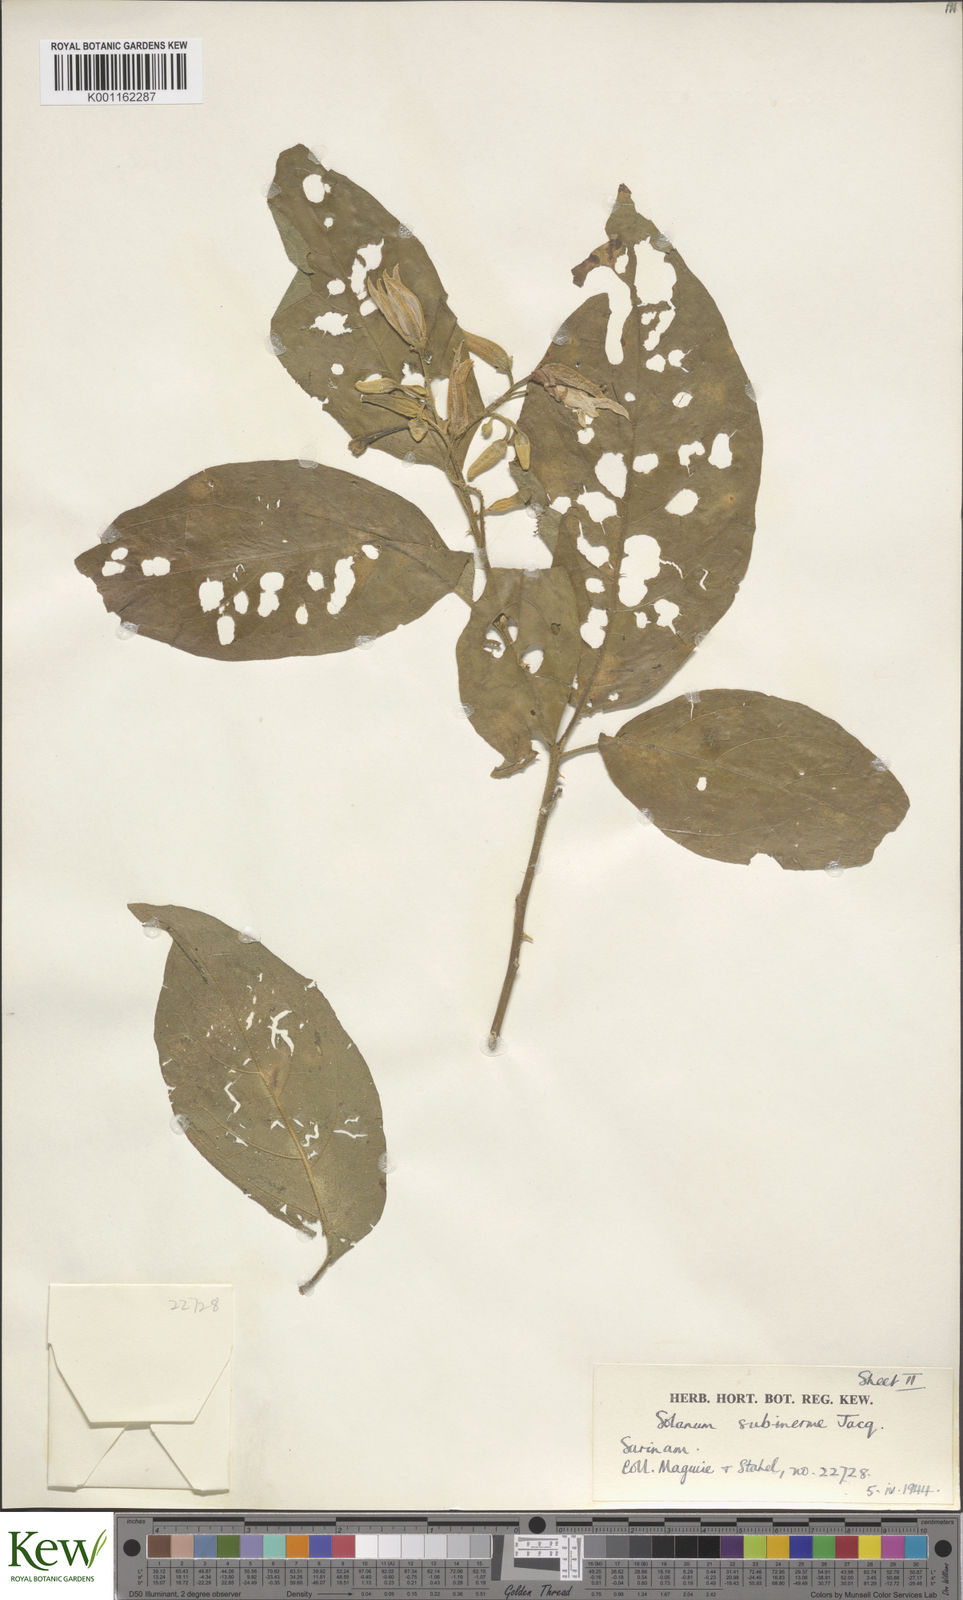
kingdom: Plantae
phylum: Tracheophyta
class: Magnoliopsida
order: Solanales
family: Solanaceae
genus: Solanum
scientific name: Solanum subinerme
